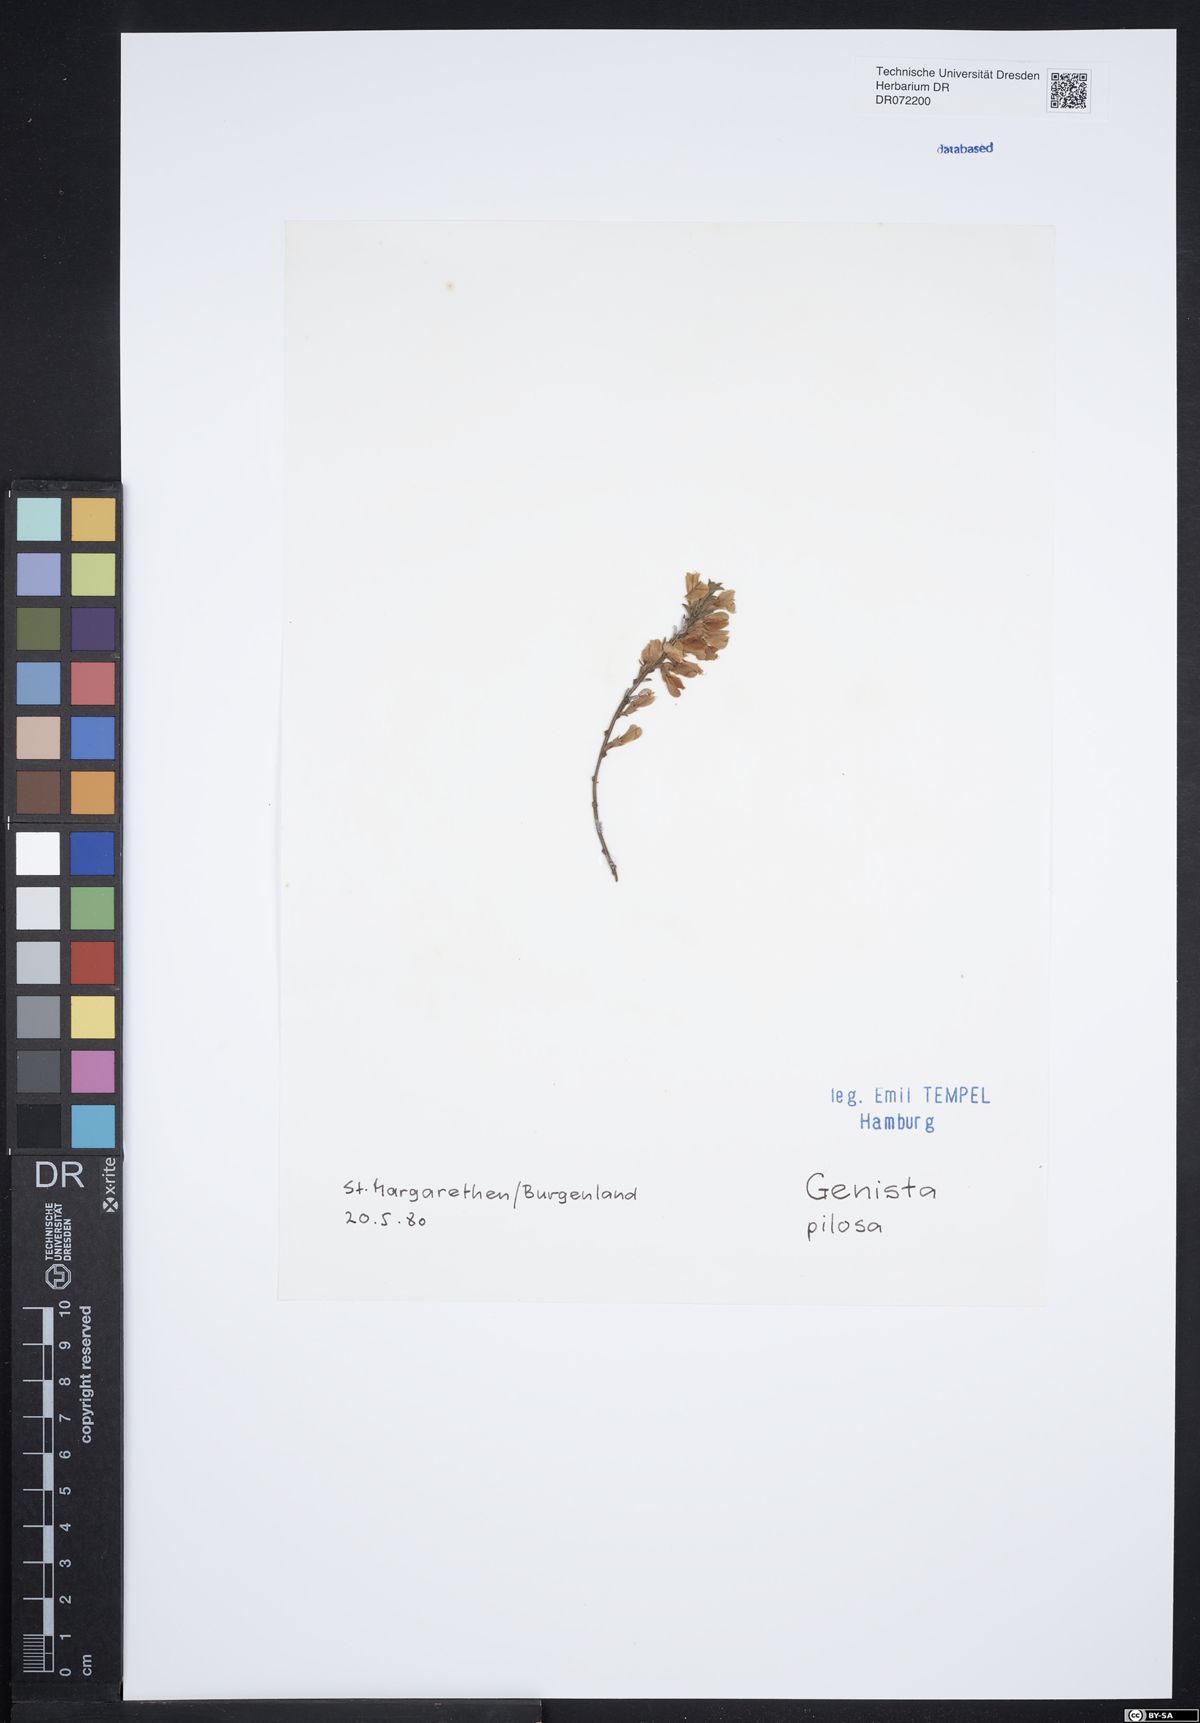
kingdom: Plantae
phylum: Tracheophyta
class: Magnoliopsida
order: Fabales
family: Fabaceae
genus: Genista
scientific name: Genista pilosa
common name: Hairy greenweed
